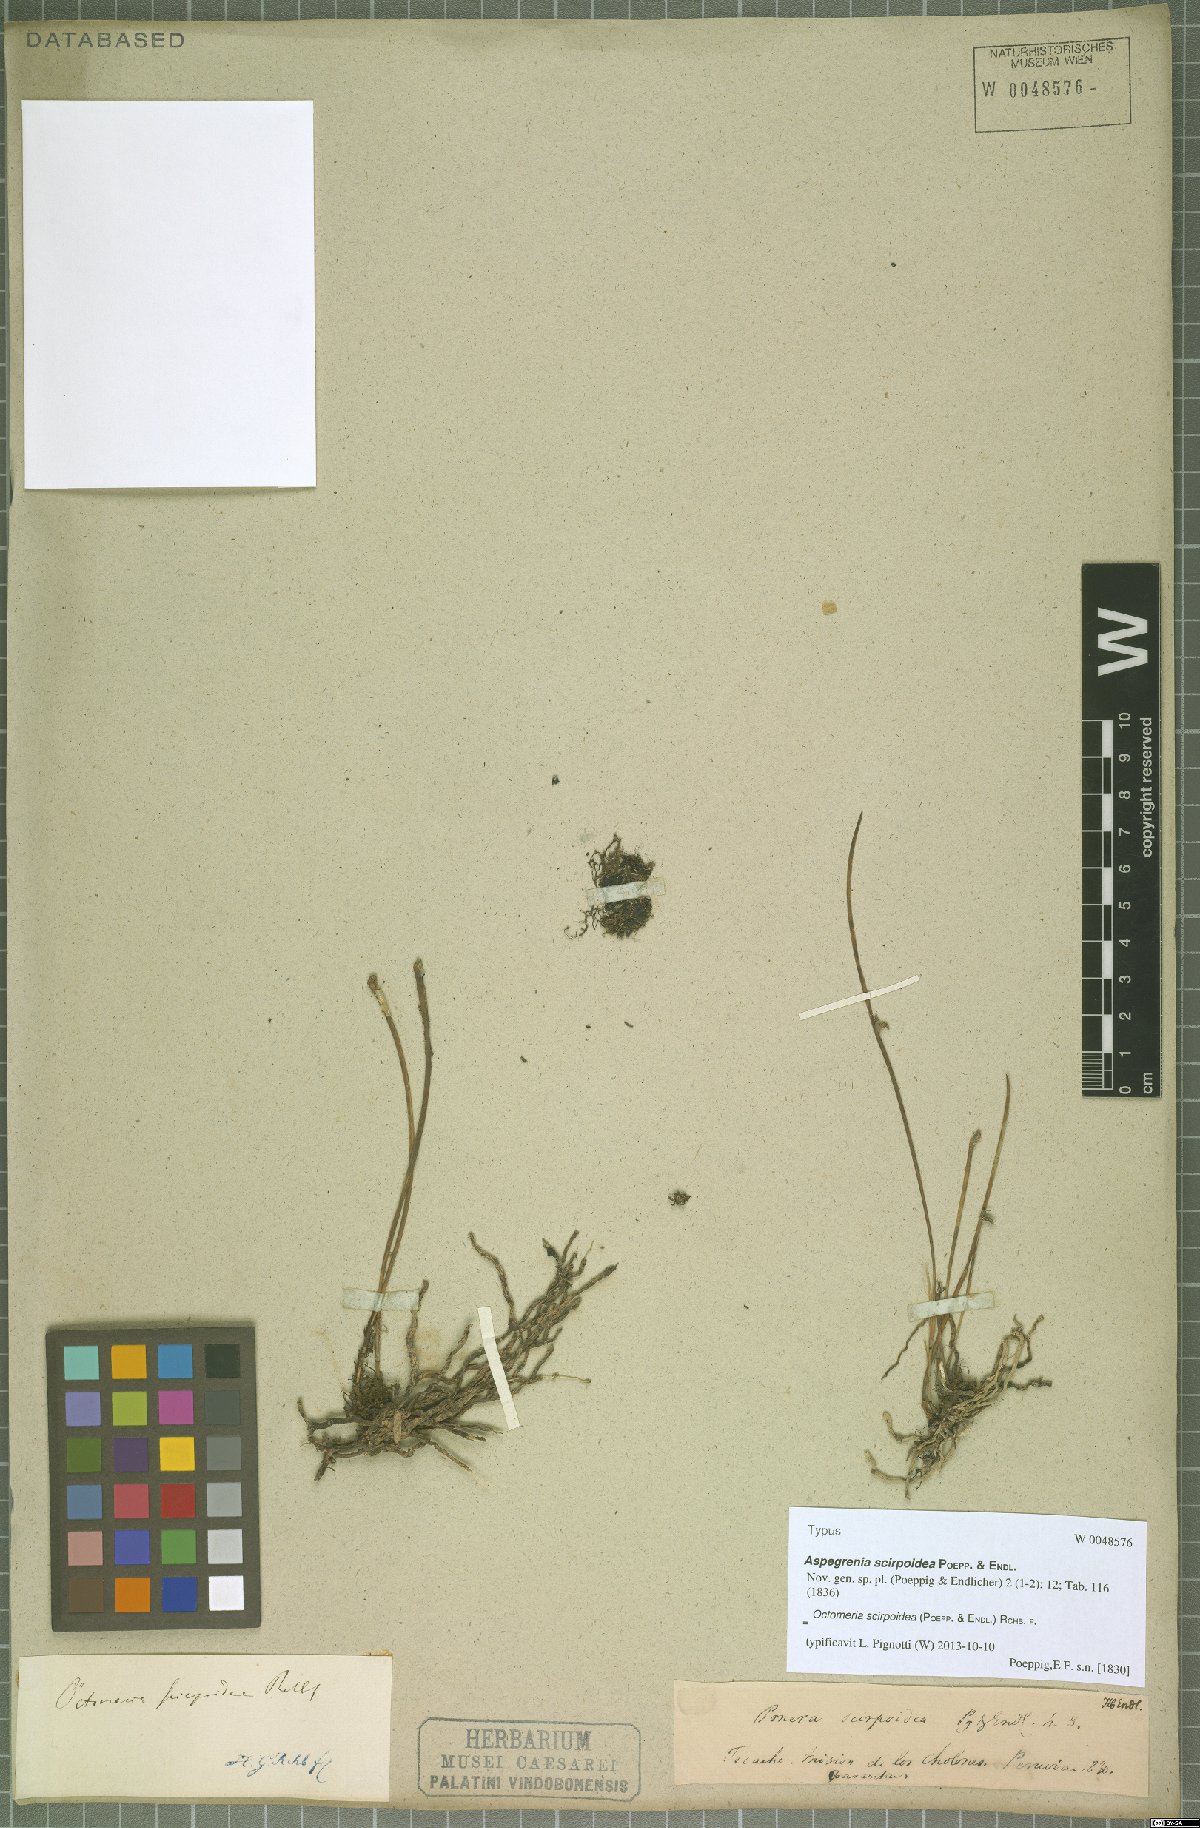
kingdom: Plantae
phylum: Tracheophyta
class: Liliopsida
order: Asparagales
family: Orchidaceae
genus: Octomeria
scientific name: Octomeria scirpoidea
